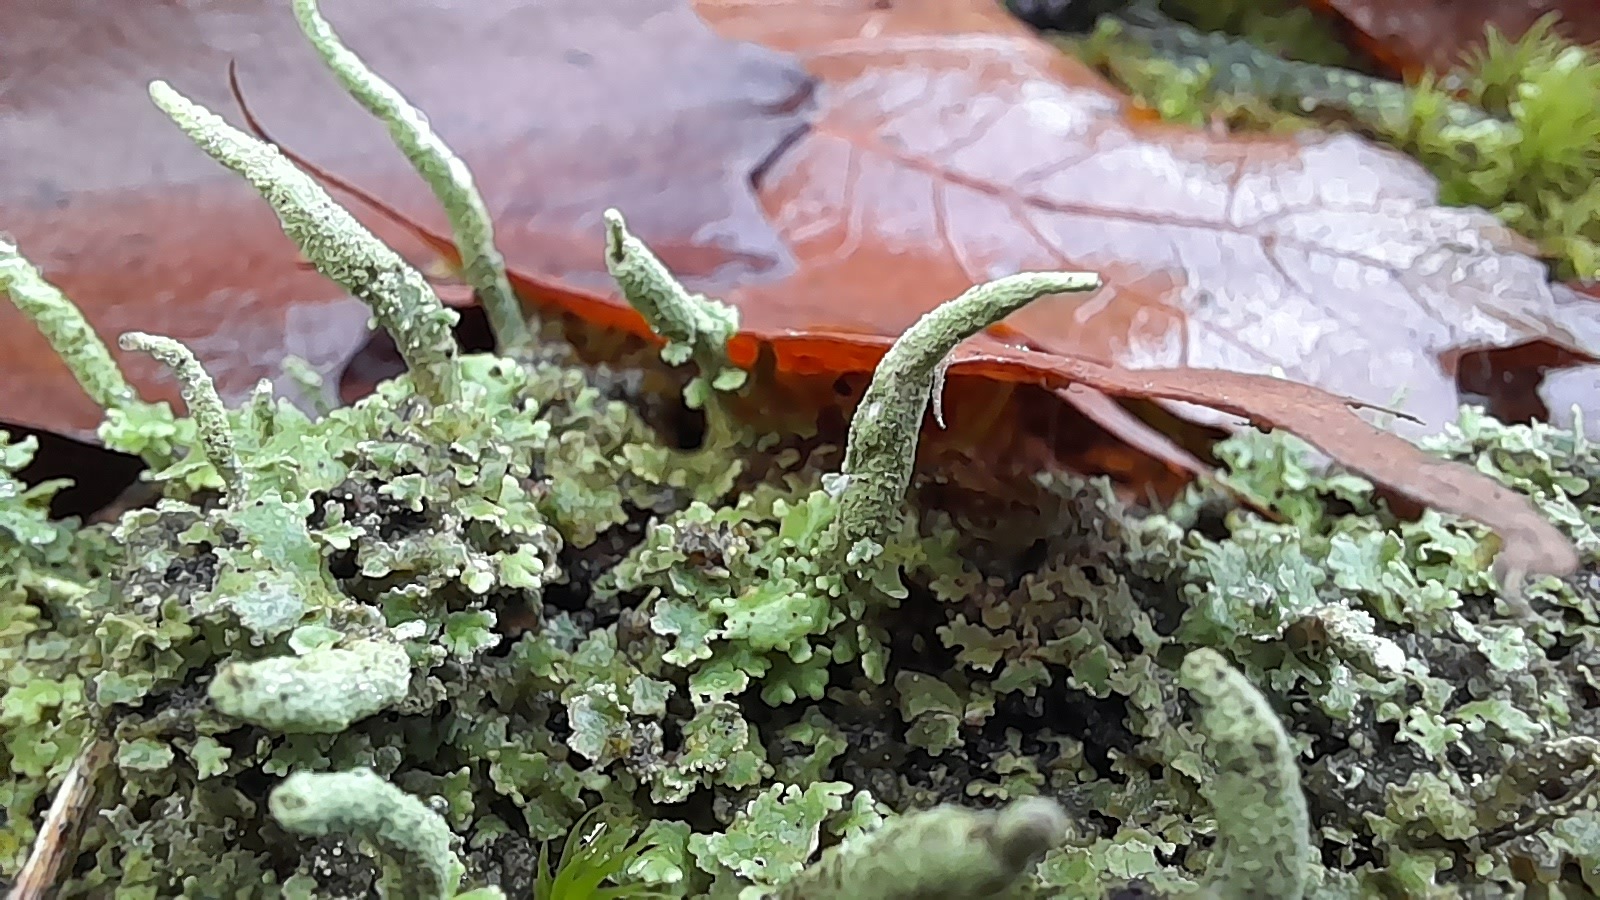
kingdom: Fungi
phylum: Ascomycota
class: Lecanoromycetes
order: Lecanorales
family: Cladoniaceae
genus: Cladonia
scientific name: Cladonia coniocraea
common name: træfods-bægerlav
